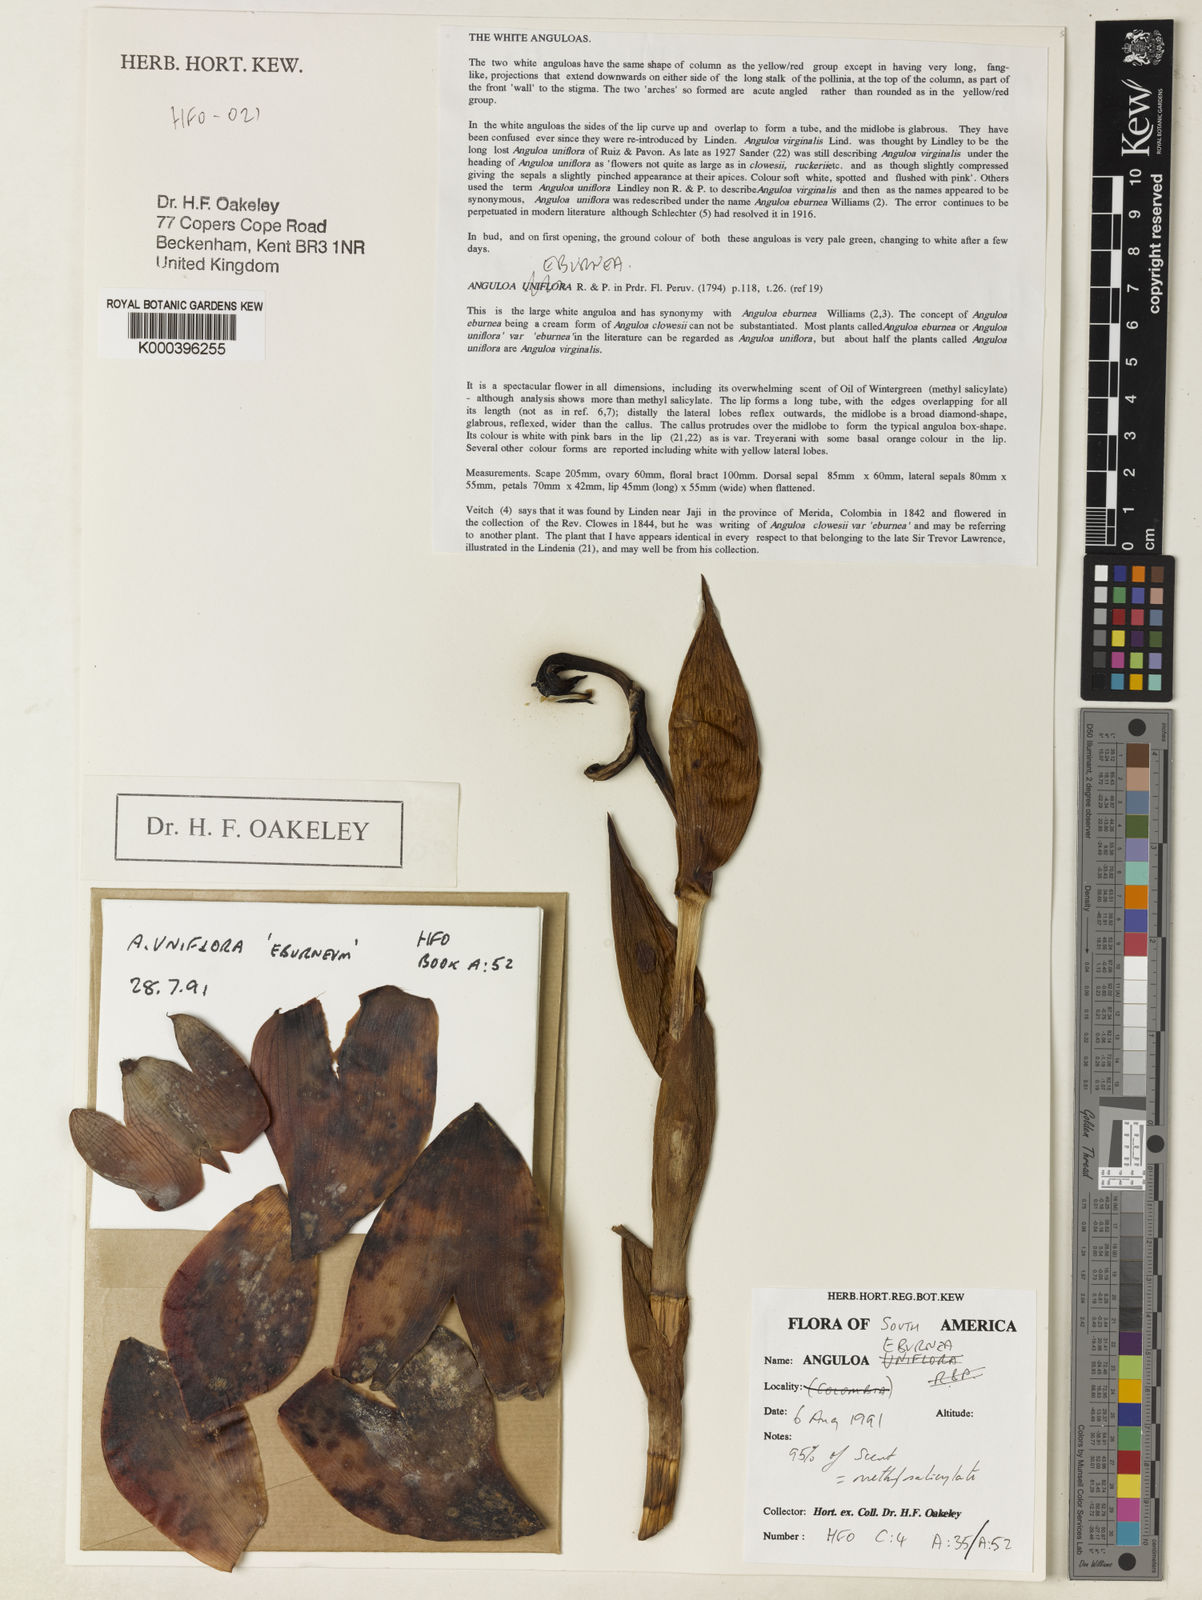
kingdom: Plantae
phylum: Tracheophyta
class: Liliopsida
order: Asparagales
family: Orchidaceae
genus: Anguloa
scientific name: Anguloa eburnea
